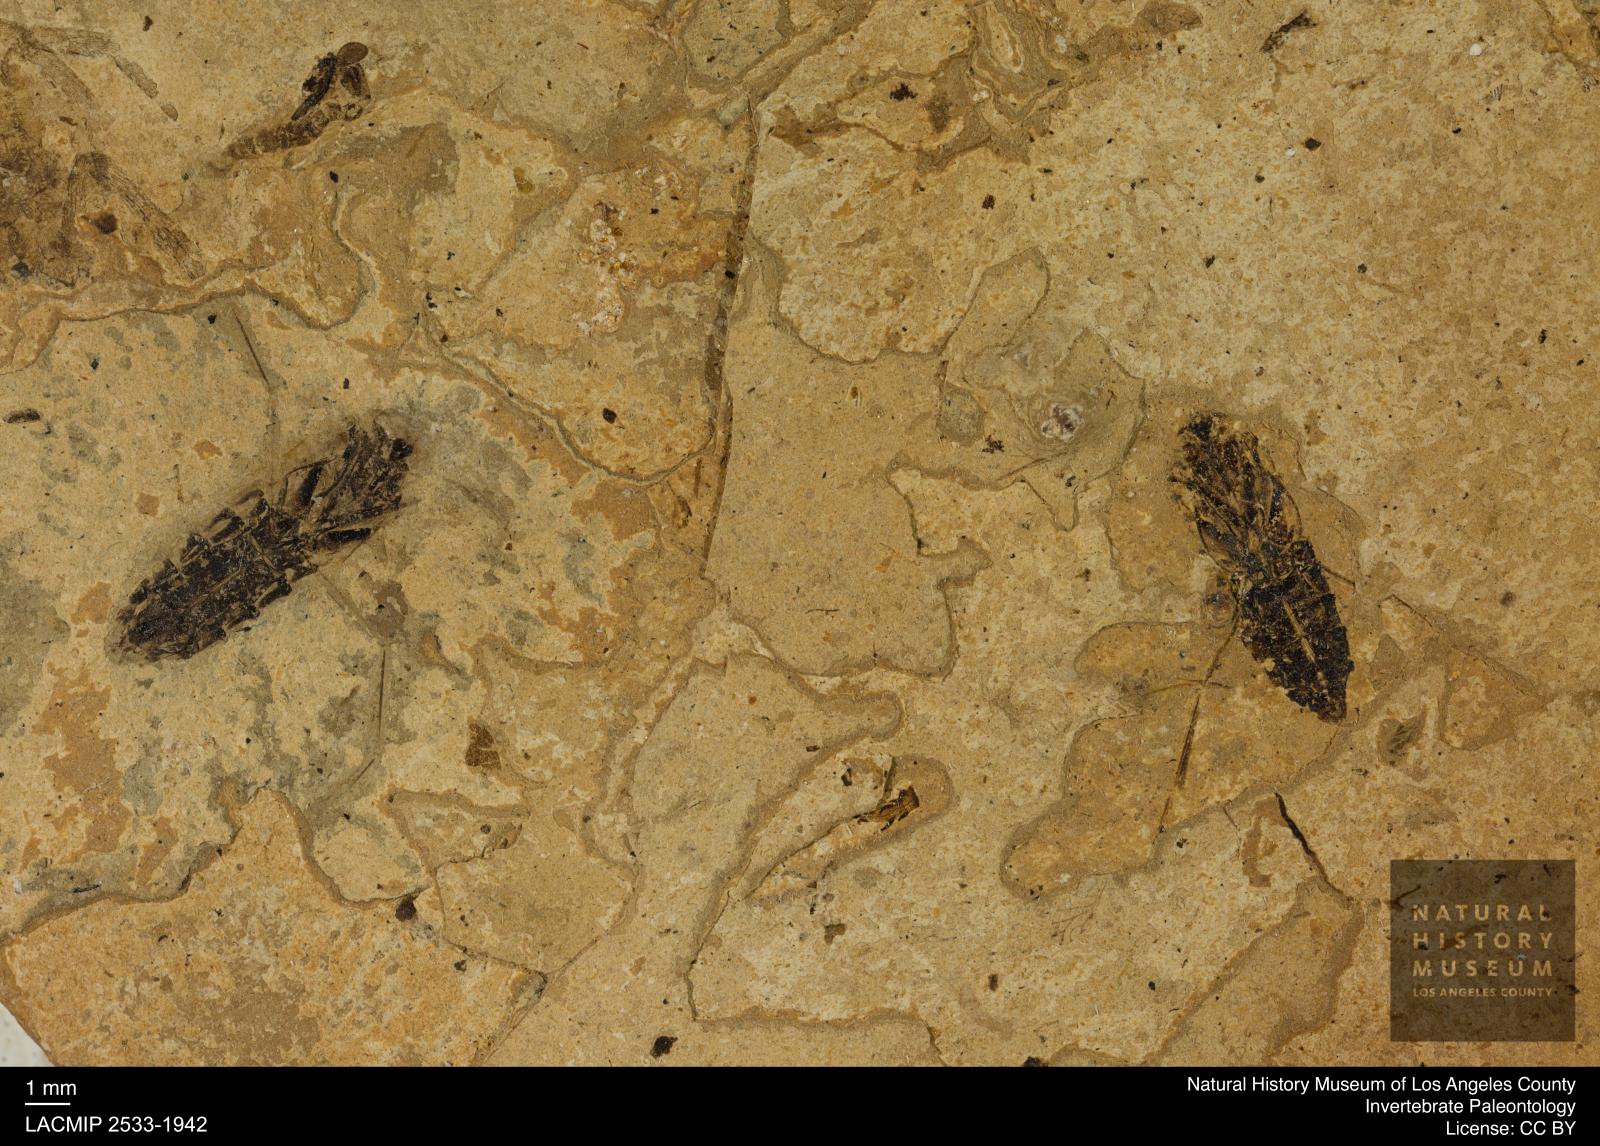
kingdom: Animalia
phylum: Arthropoda
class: Insecta
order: Hemiptera
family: Notonectidae
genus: Anisops
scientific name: Anisops Notonecta deichmuelleri
